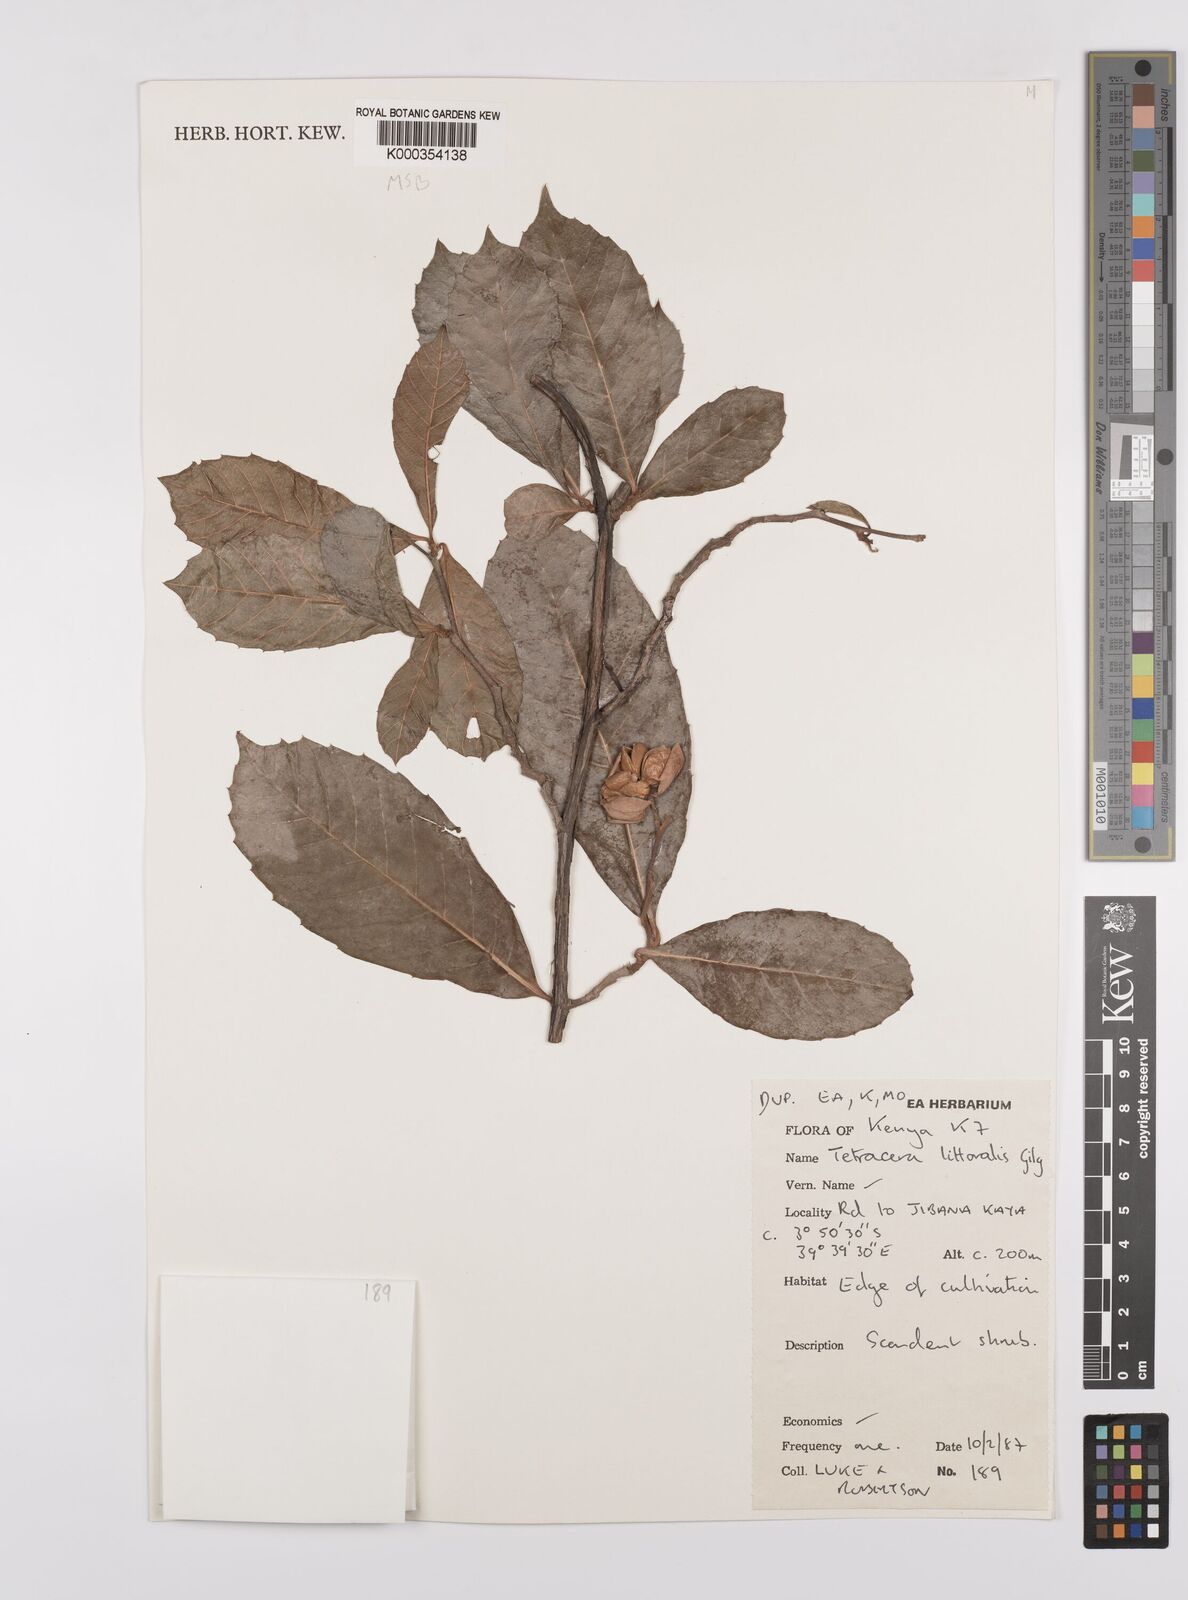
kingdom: Plantae
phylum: Tracheophyta
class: Magnoliopsida
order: Dilleniales
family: Dilleniaceae
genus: Tetracera
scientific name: Tetracera litoralis
